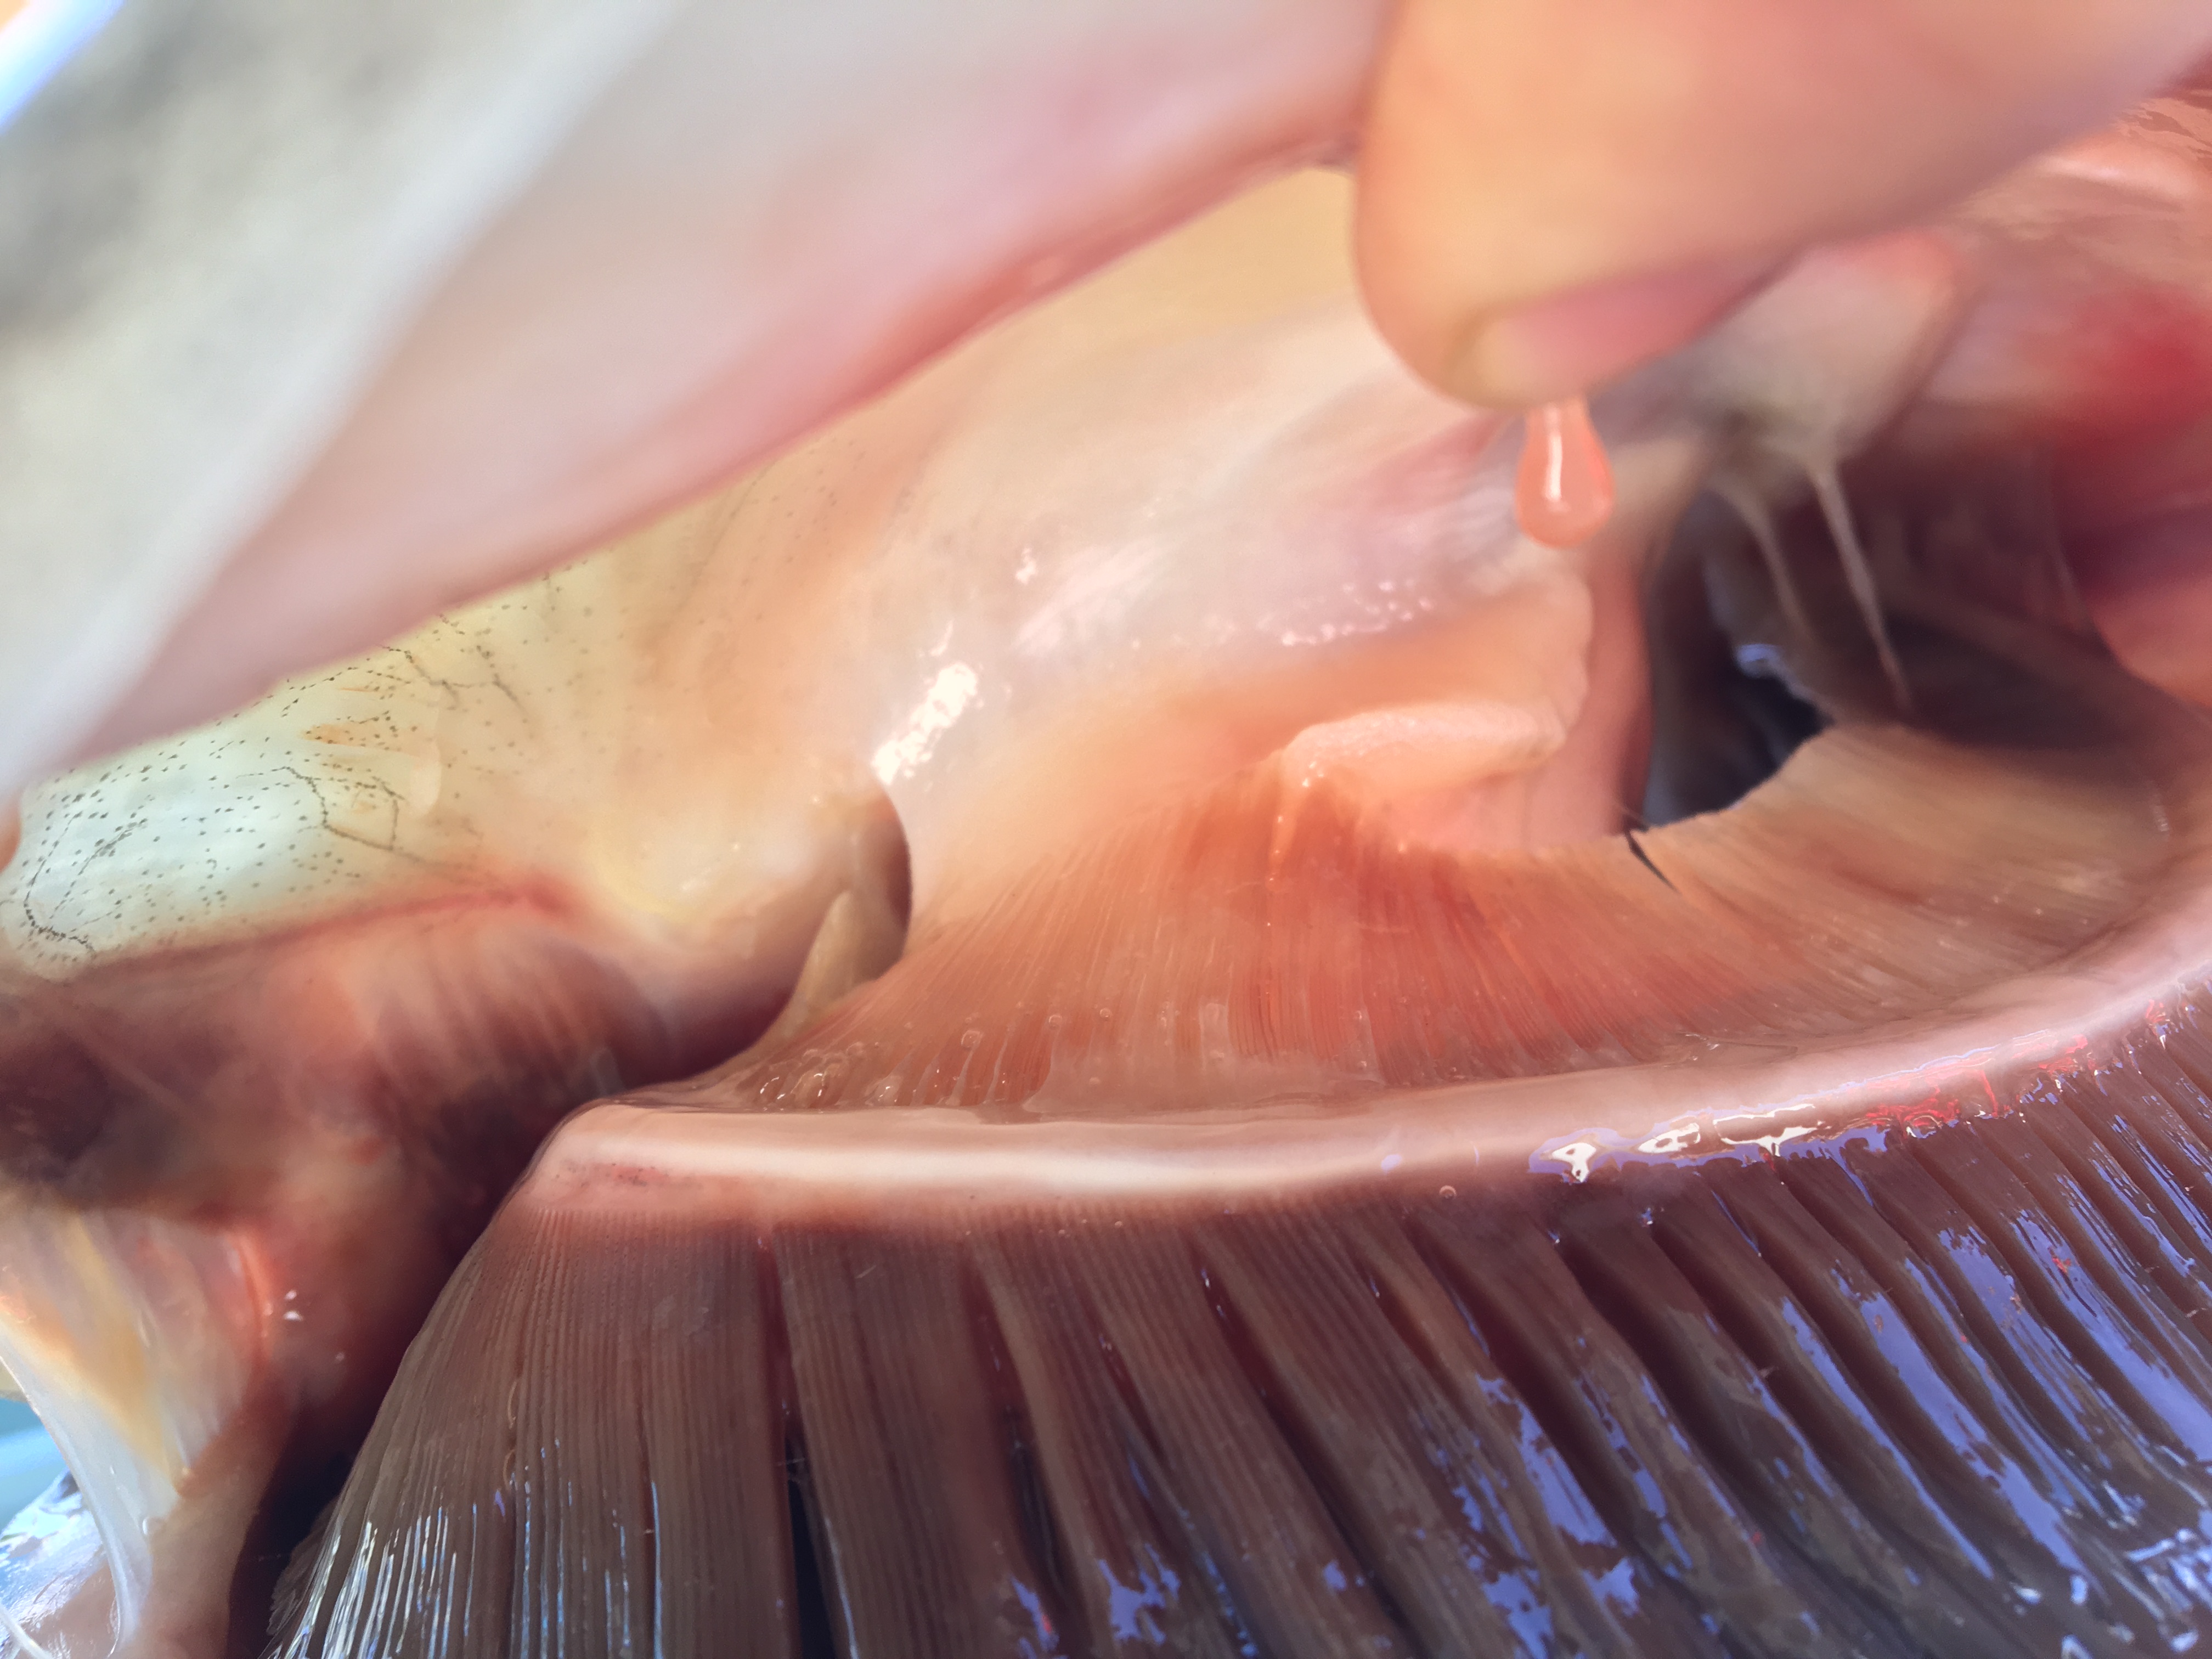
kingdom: Animalia
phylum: Chordata
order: Cypriniformes
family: Cyprinidae
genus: Hypophthalmichthys
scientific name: Hypophthalmichthys nobilis
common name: Bighead carp
